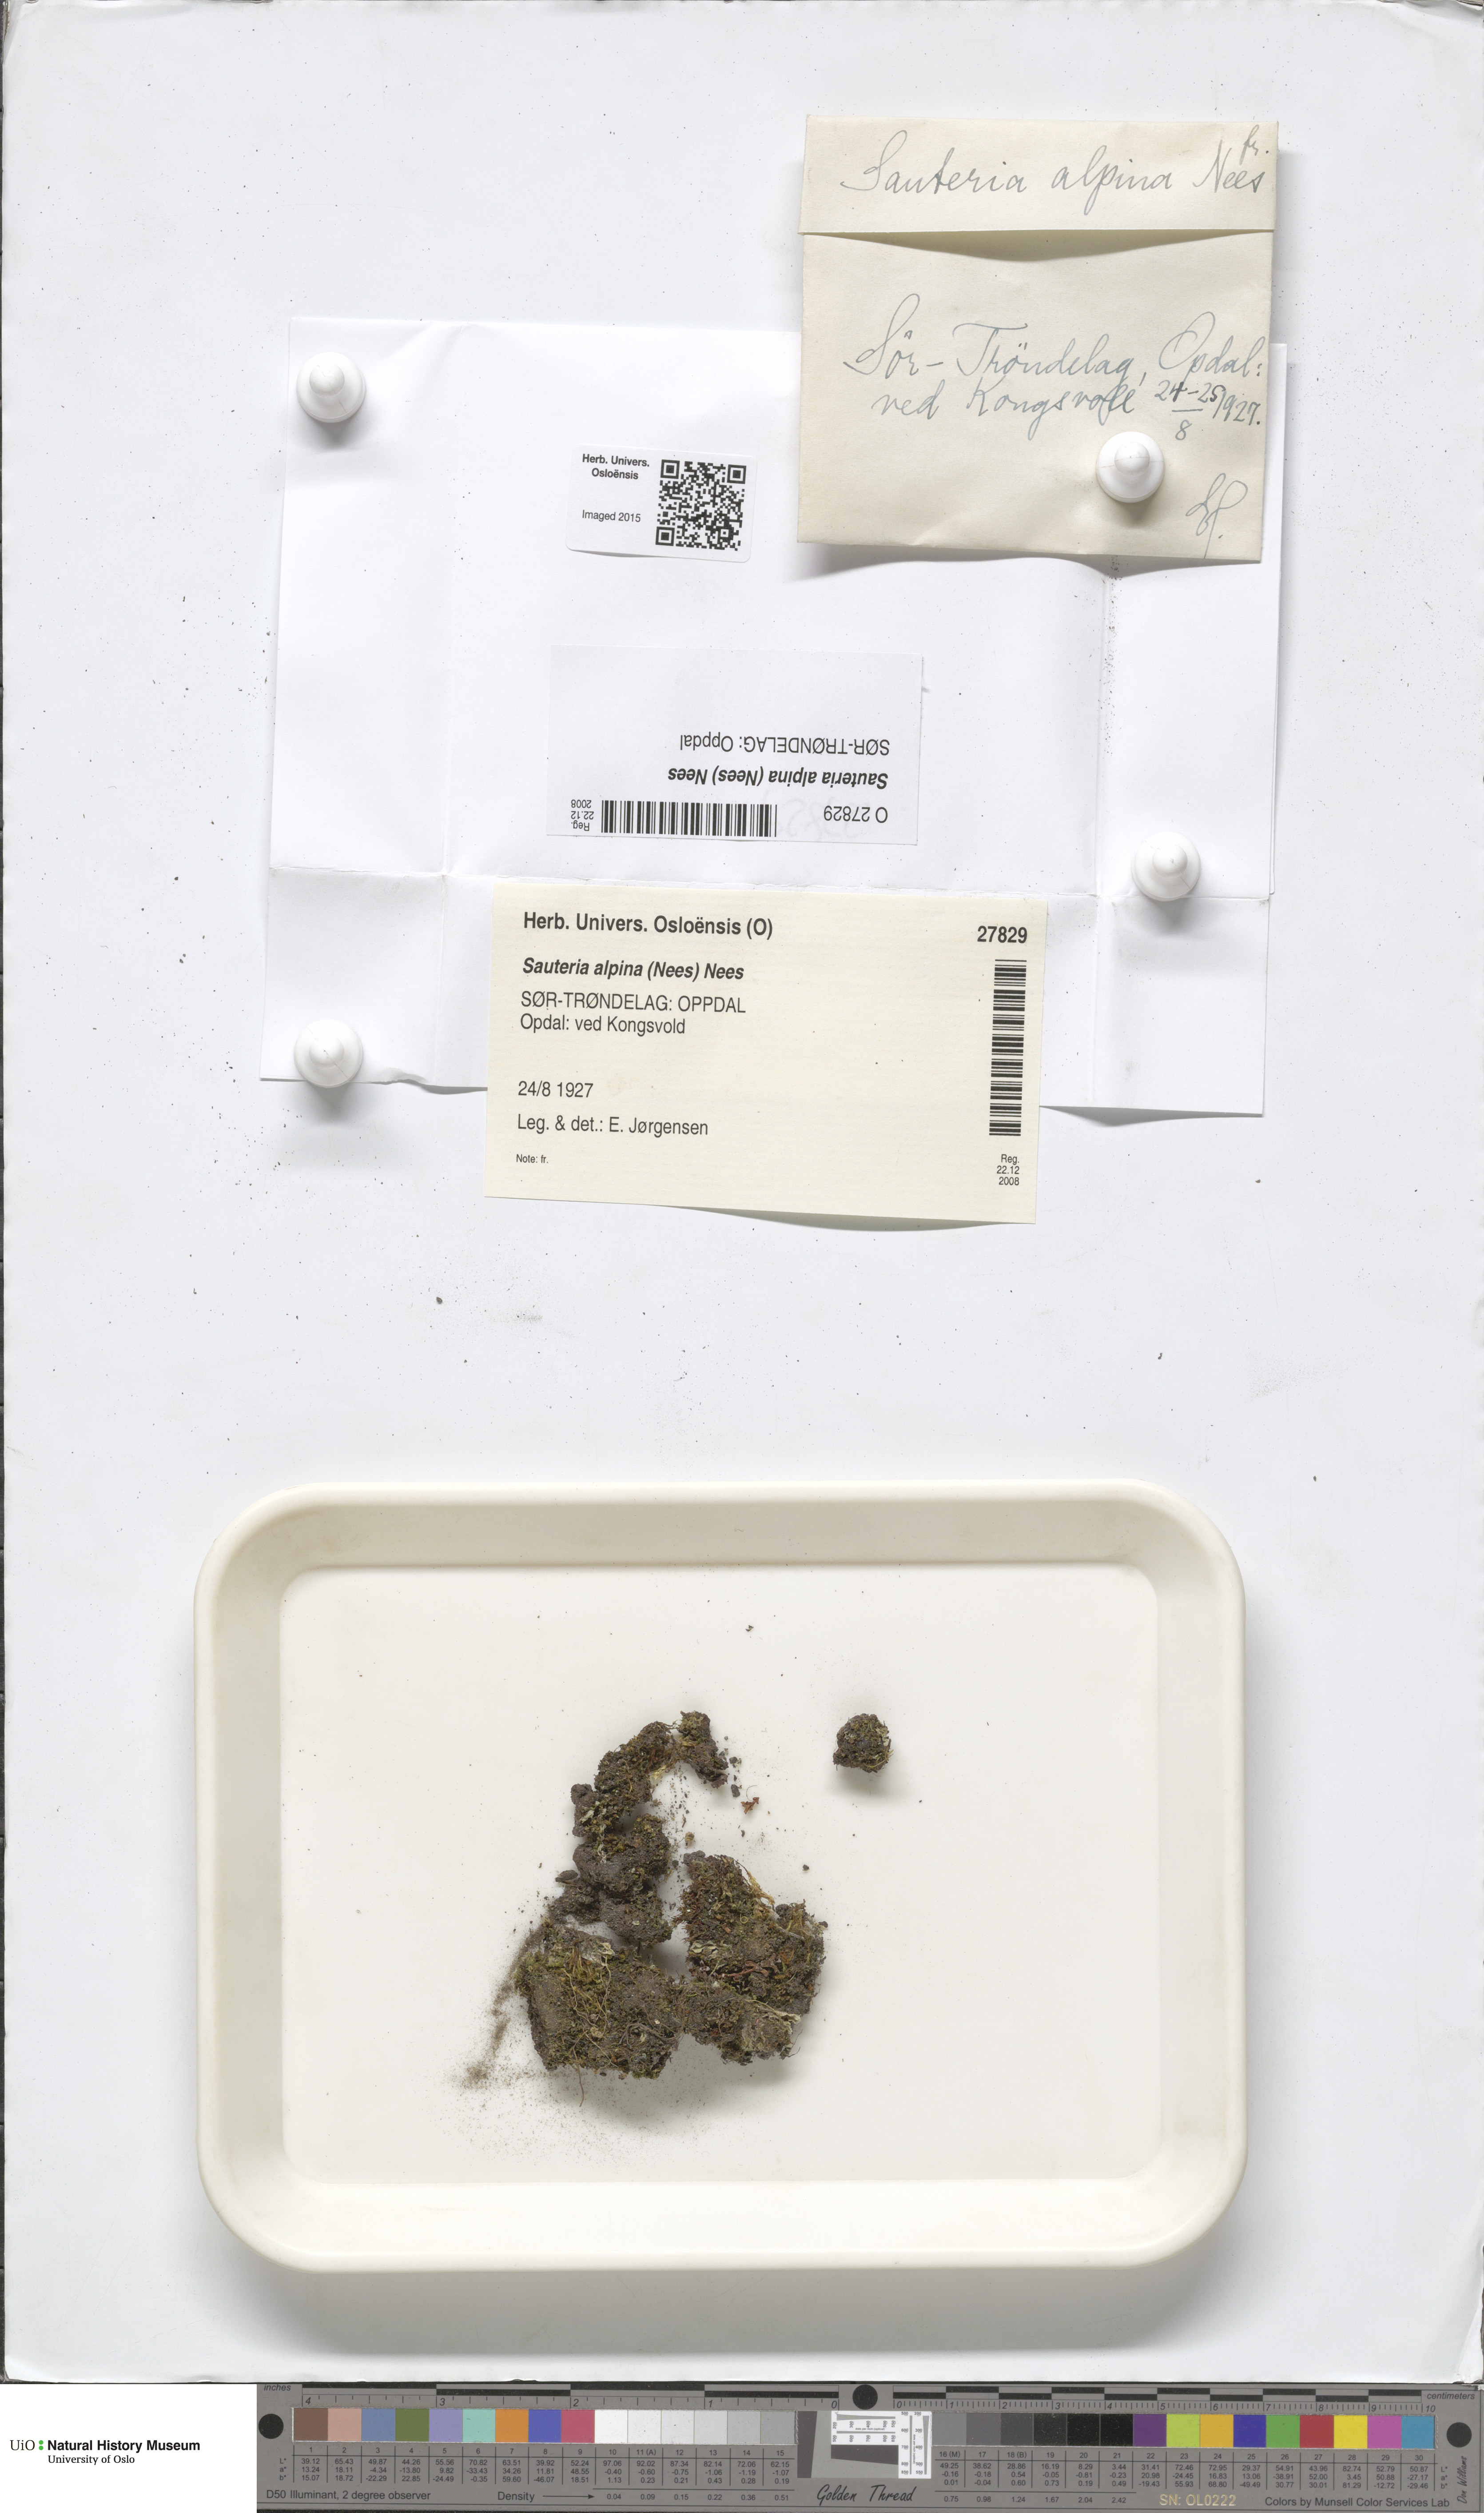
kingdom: Plantae
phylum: Marchantiophyta
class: Marchantiopsida
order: Marchantiales
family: Cleveaceae
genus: Sauteria
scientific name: Sauteria alpina
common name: Snow lungwort
